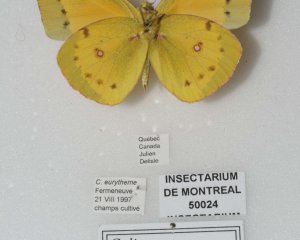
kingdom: Animalia
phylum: Arthropoda
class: Insecta
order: Lepidoptera
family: Pieridae
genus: Colias
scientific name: Colias eurytheme
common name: Orange Sulphur
